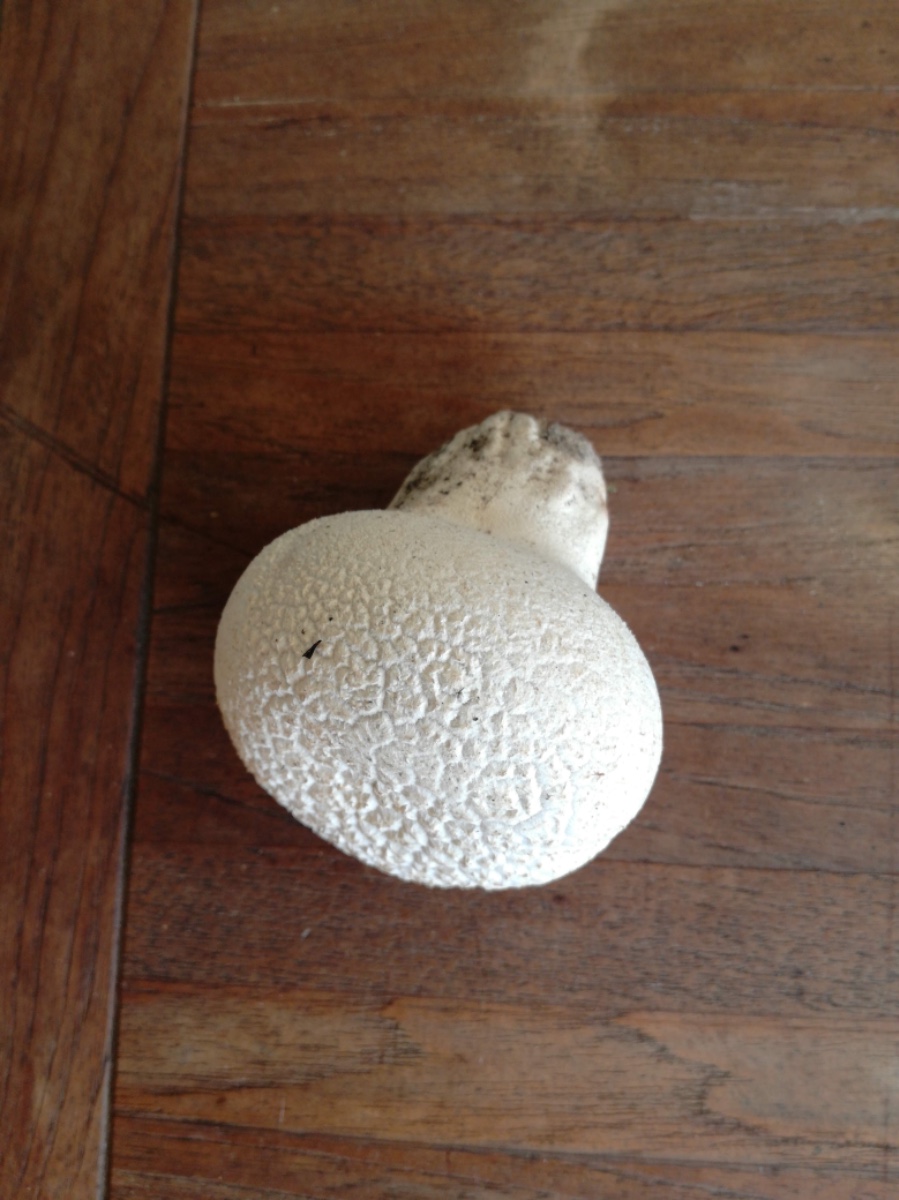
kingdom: Fungi
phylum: Basidiomycota
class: Agaricomycetes
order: Agaricales
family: Lycoperdaceae
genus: Bovistella
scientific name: Bovistella utriformis
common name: skællet støvbold
